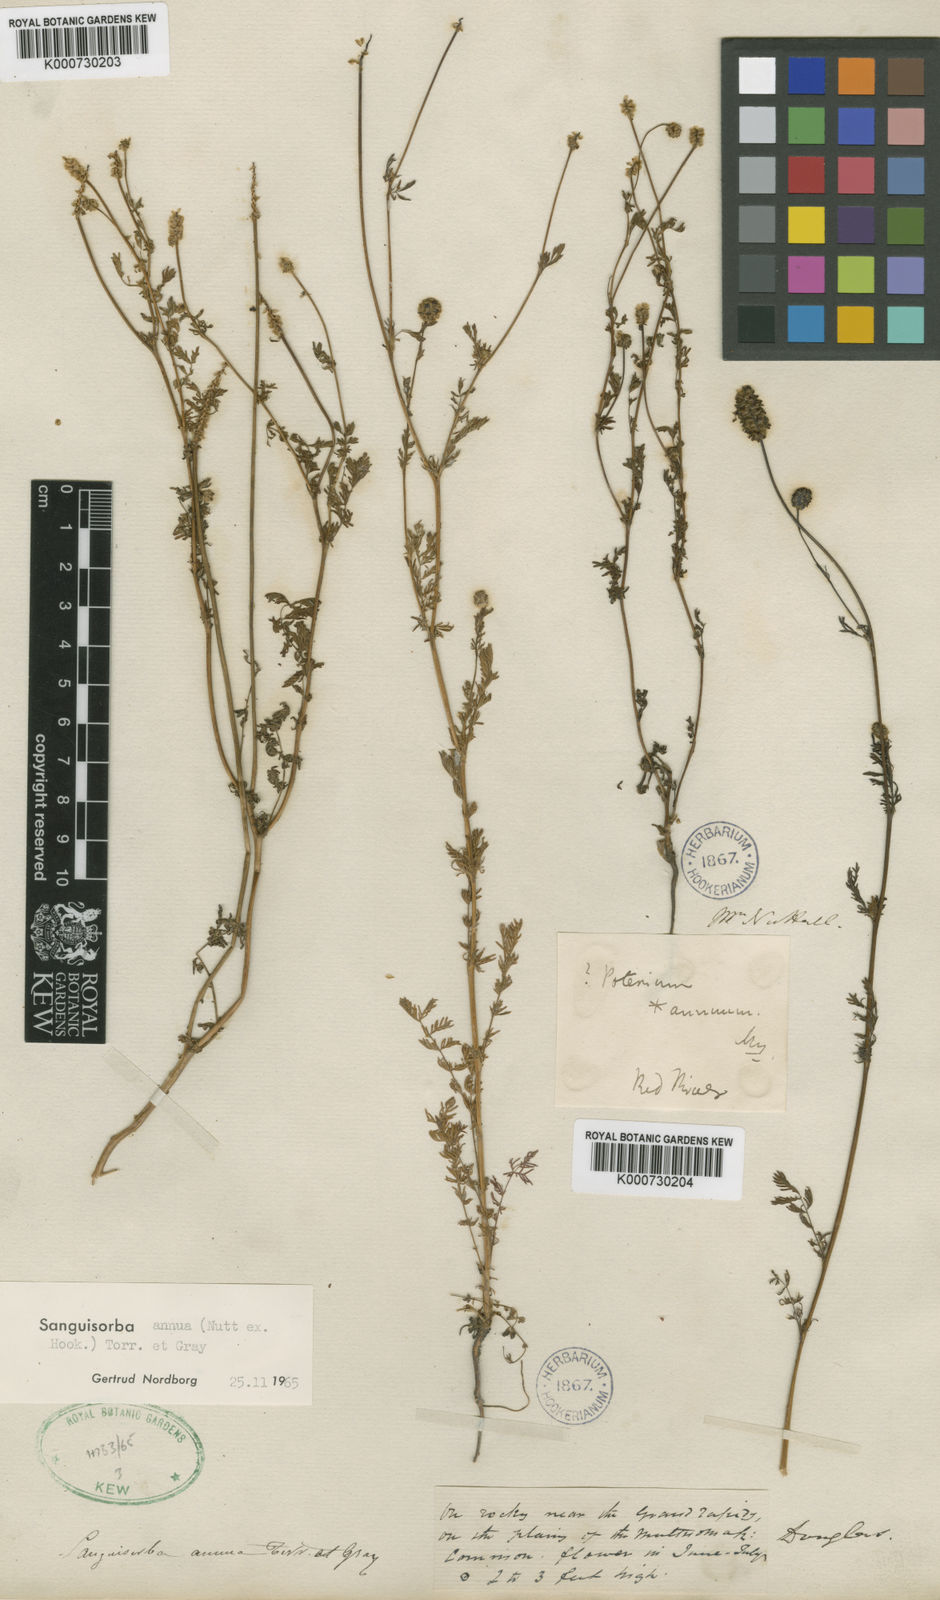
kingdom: Plantae
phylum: Tracheophyta
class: Magnoliopsida
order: Rosales
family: Rosaceae
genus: Sanguisorba
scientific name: Sanguisorba
